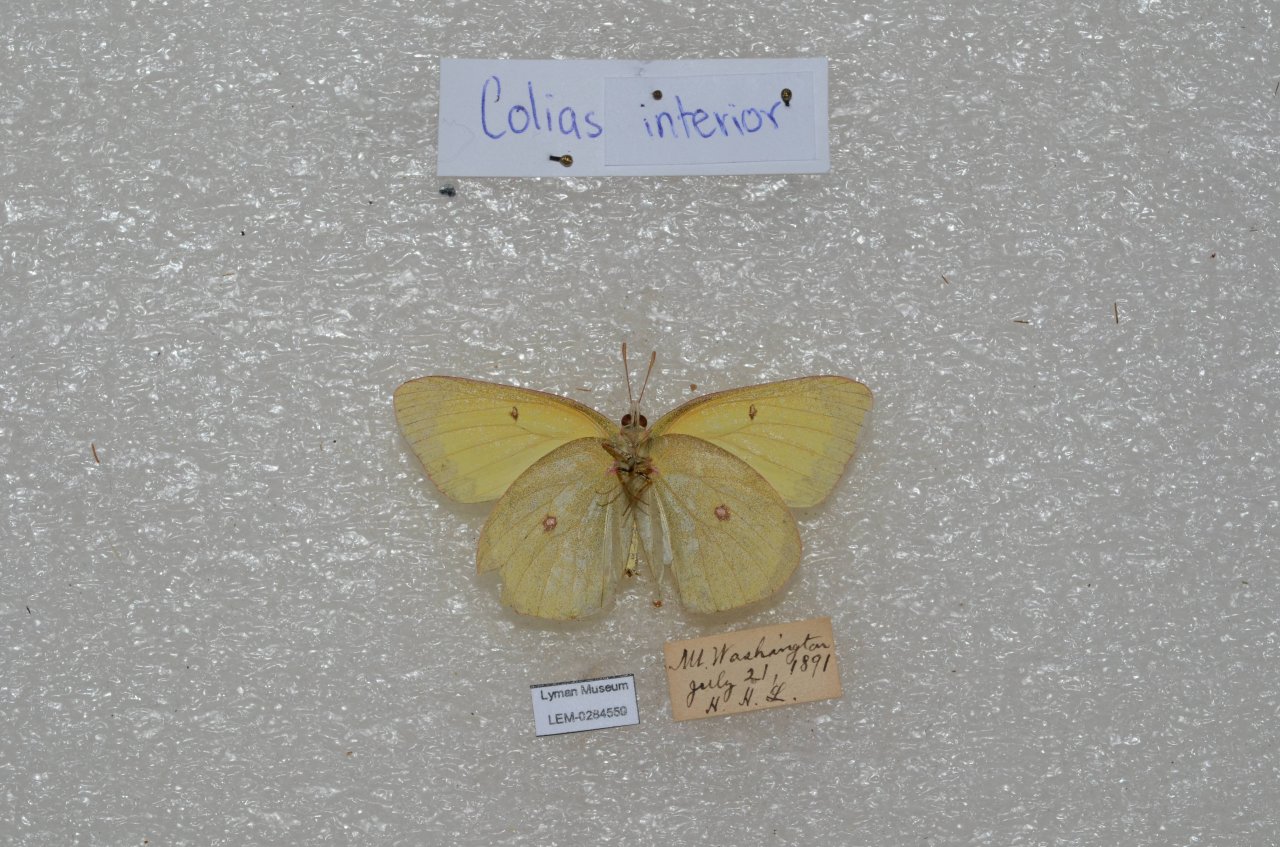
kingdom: Animalia
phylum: Arthropoda
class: Insecta
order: Lepidoptera
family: Pieridae
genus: Colias
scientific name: Colias interior
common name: Pink-edged Sulphur
